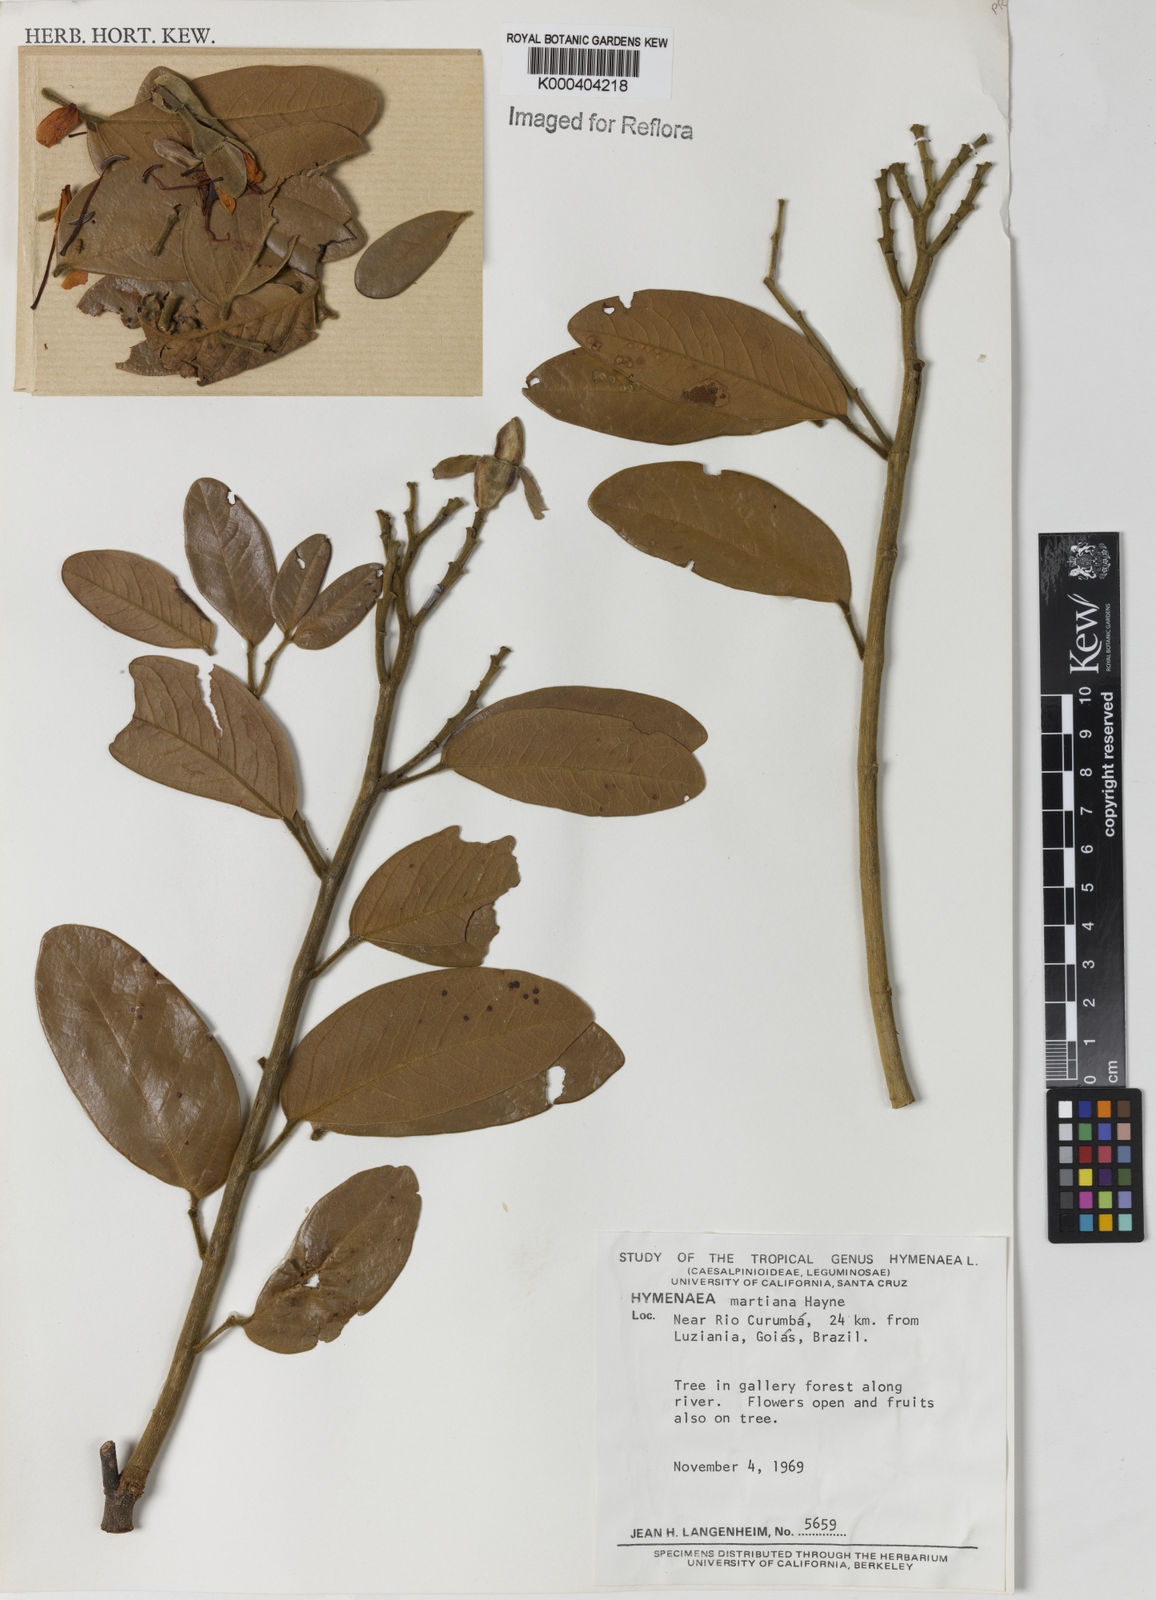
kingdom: Plantae
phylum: Tracheophyta
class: Magnoliopsida
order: Fabales
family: Fabaceae
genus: Hymenaea
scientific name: Hymenaea martiana
